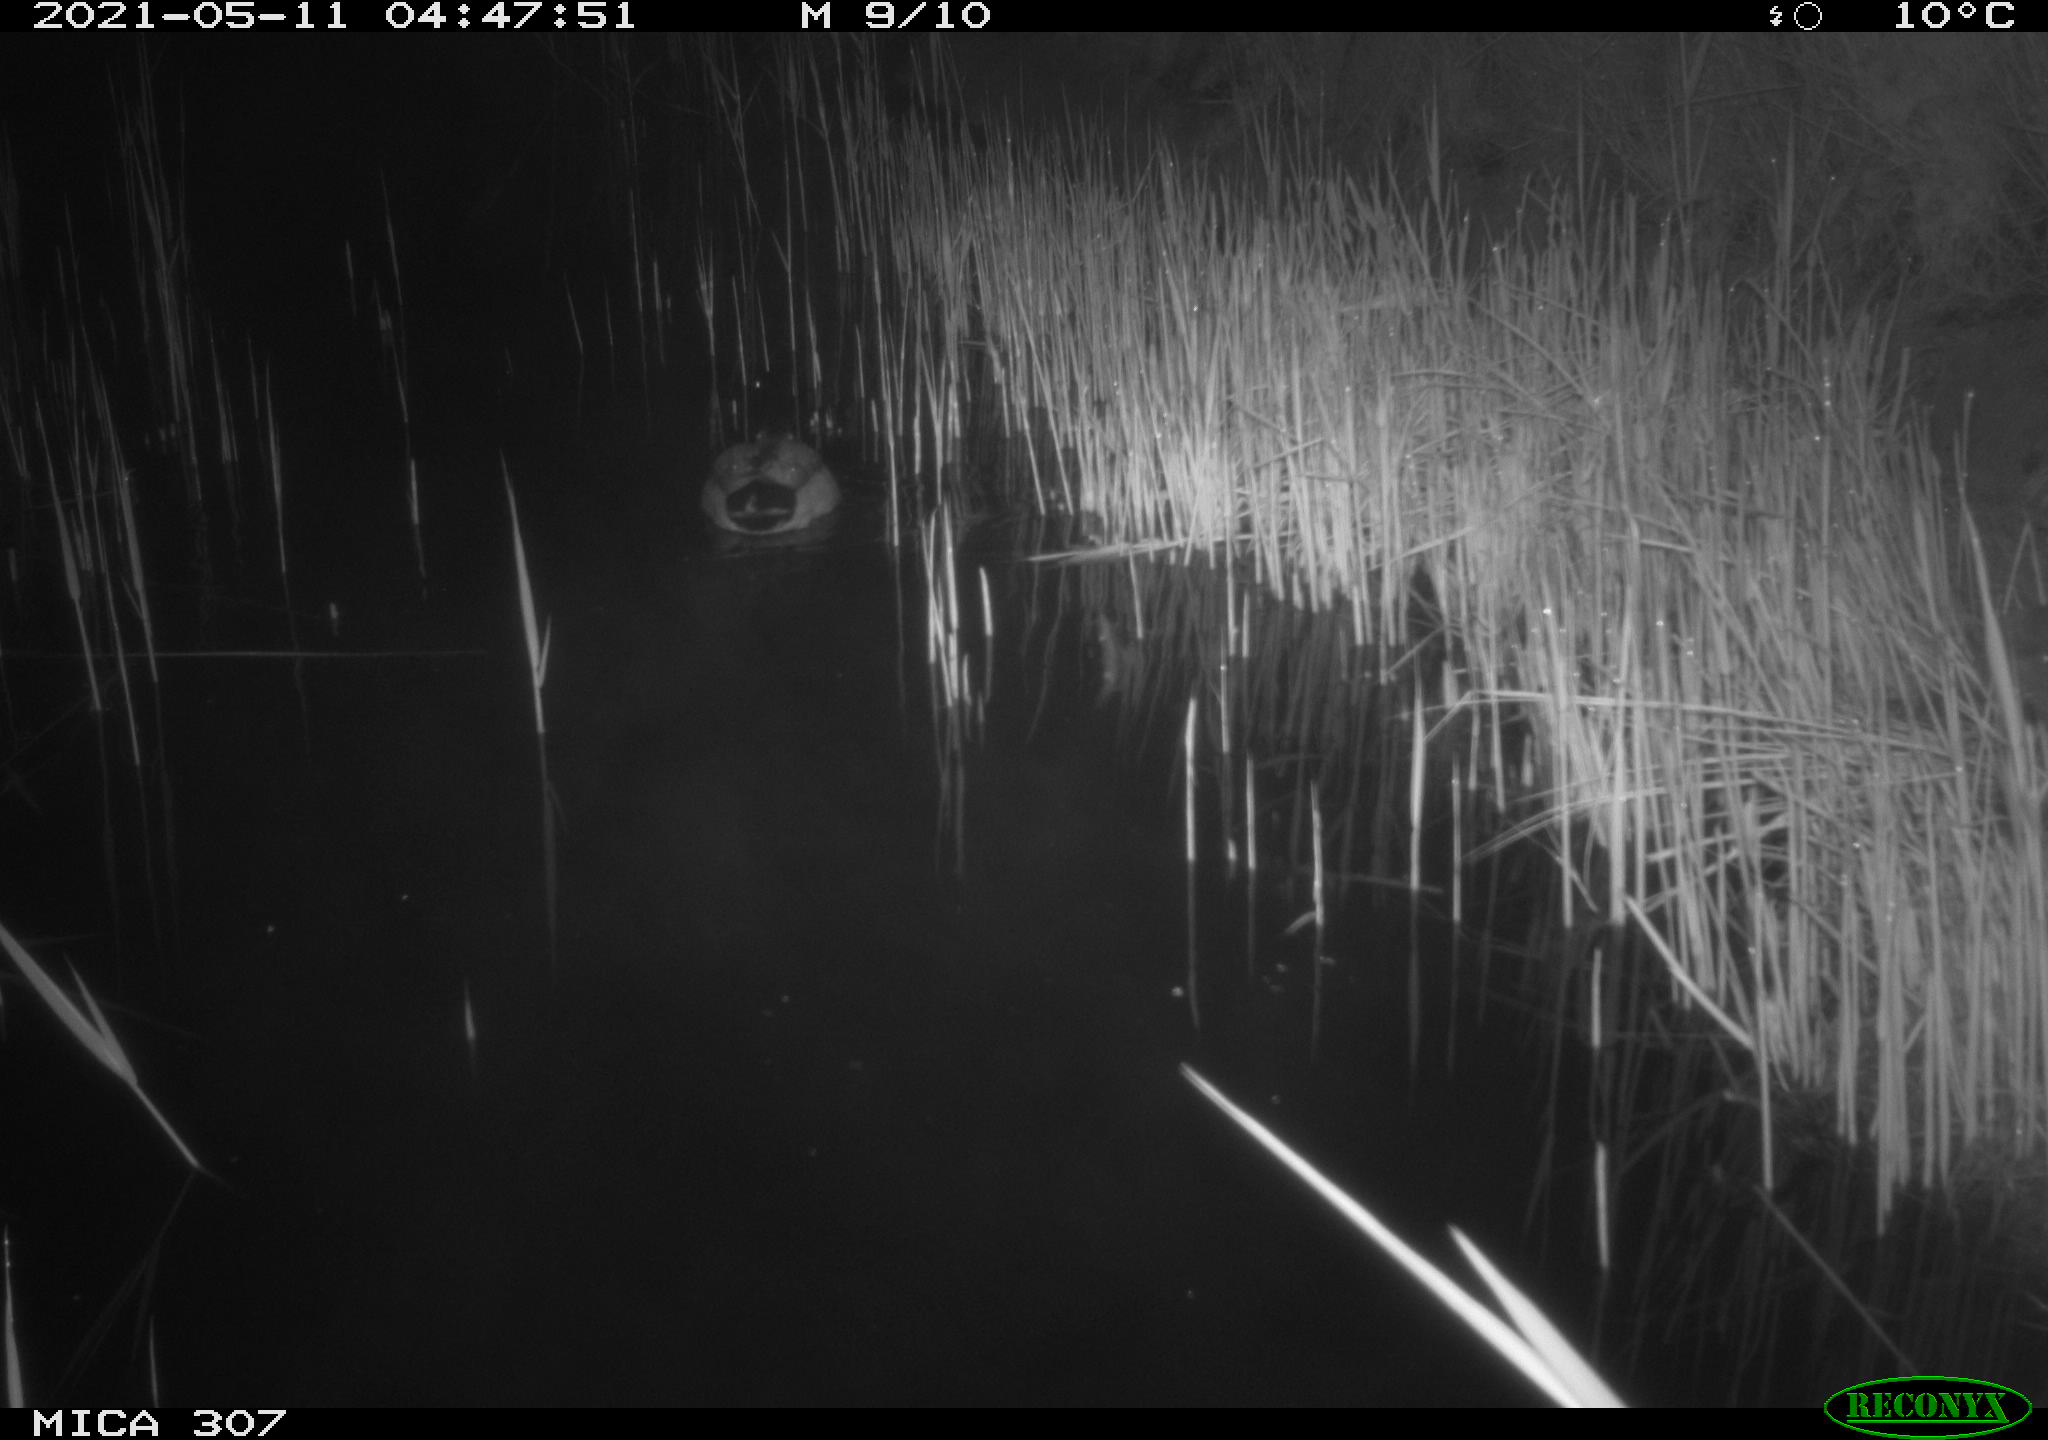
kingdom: Animalia
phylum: Chordata
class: Aves
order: Gruiformes
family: Rallidae
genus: Gallinula
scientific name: Gallinula chloropus
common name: Common moorhen
